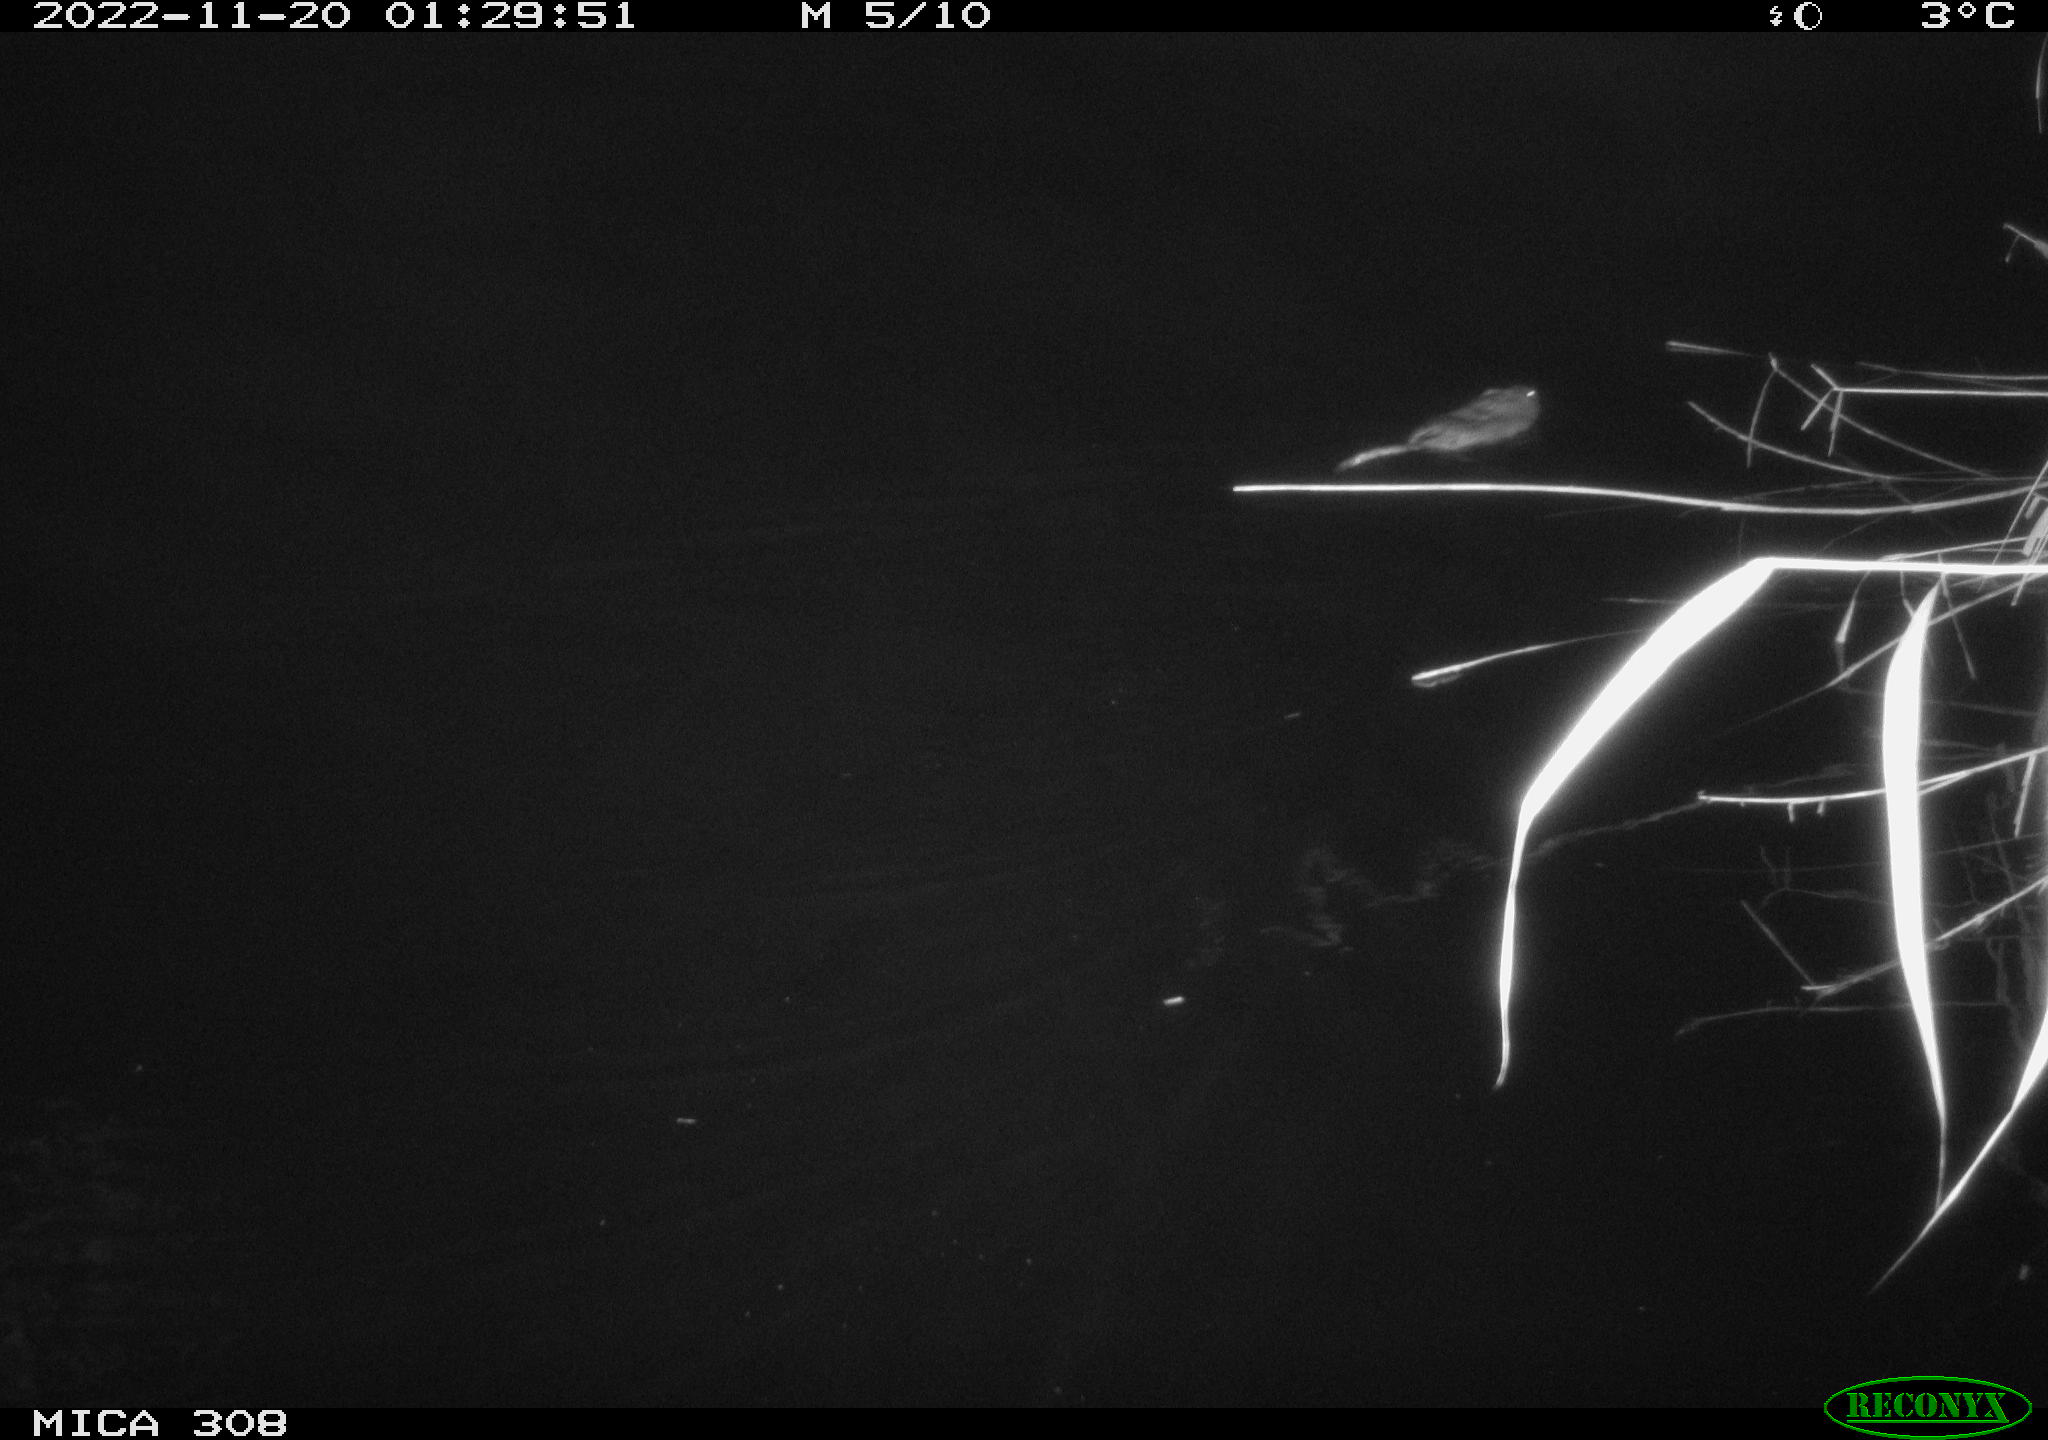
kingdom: Animalia
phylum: Chordata
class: Mammalia
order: Rodentia
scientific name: Rodentia
